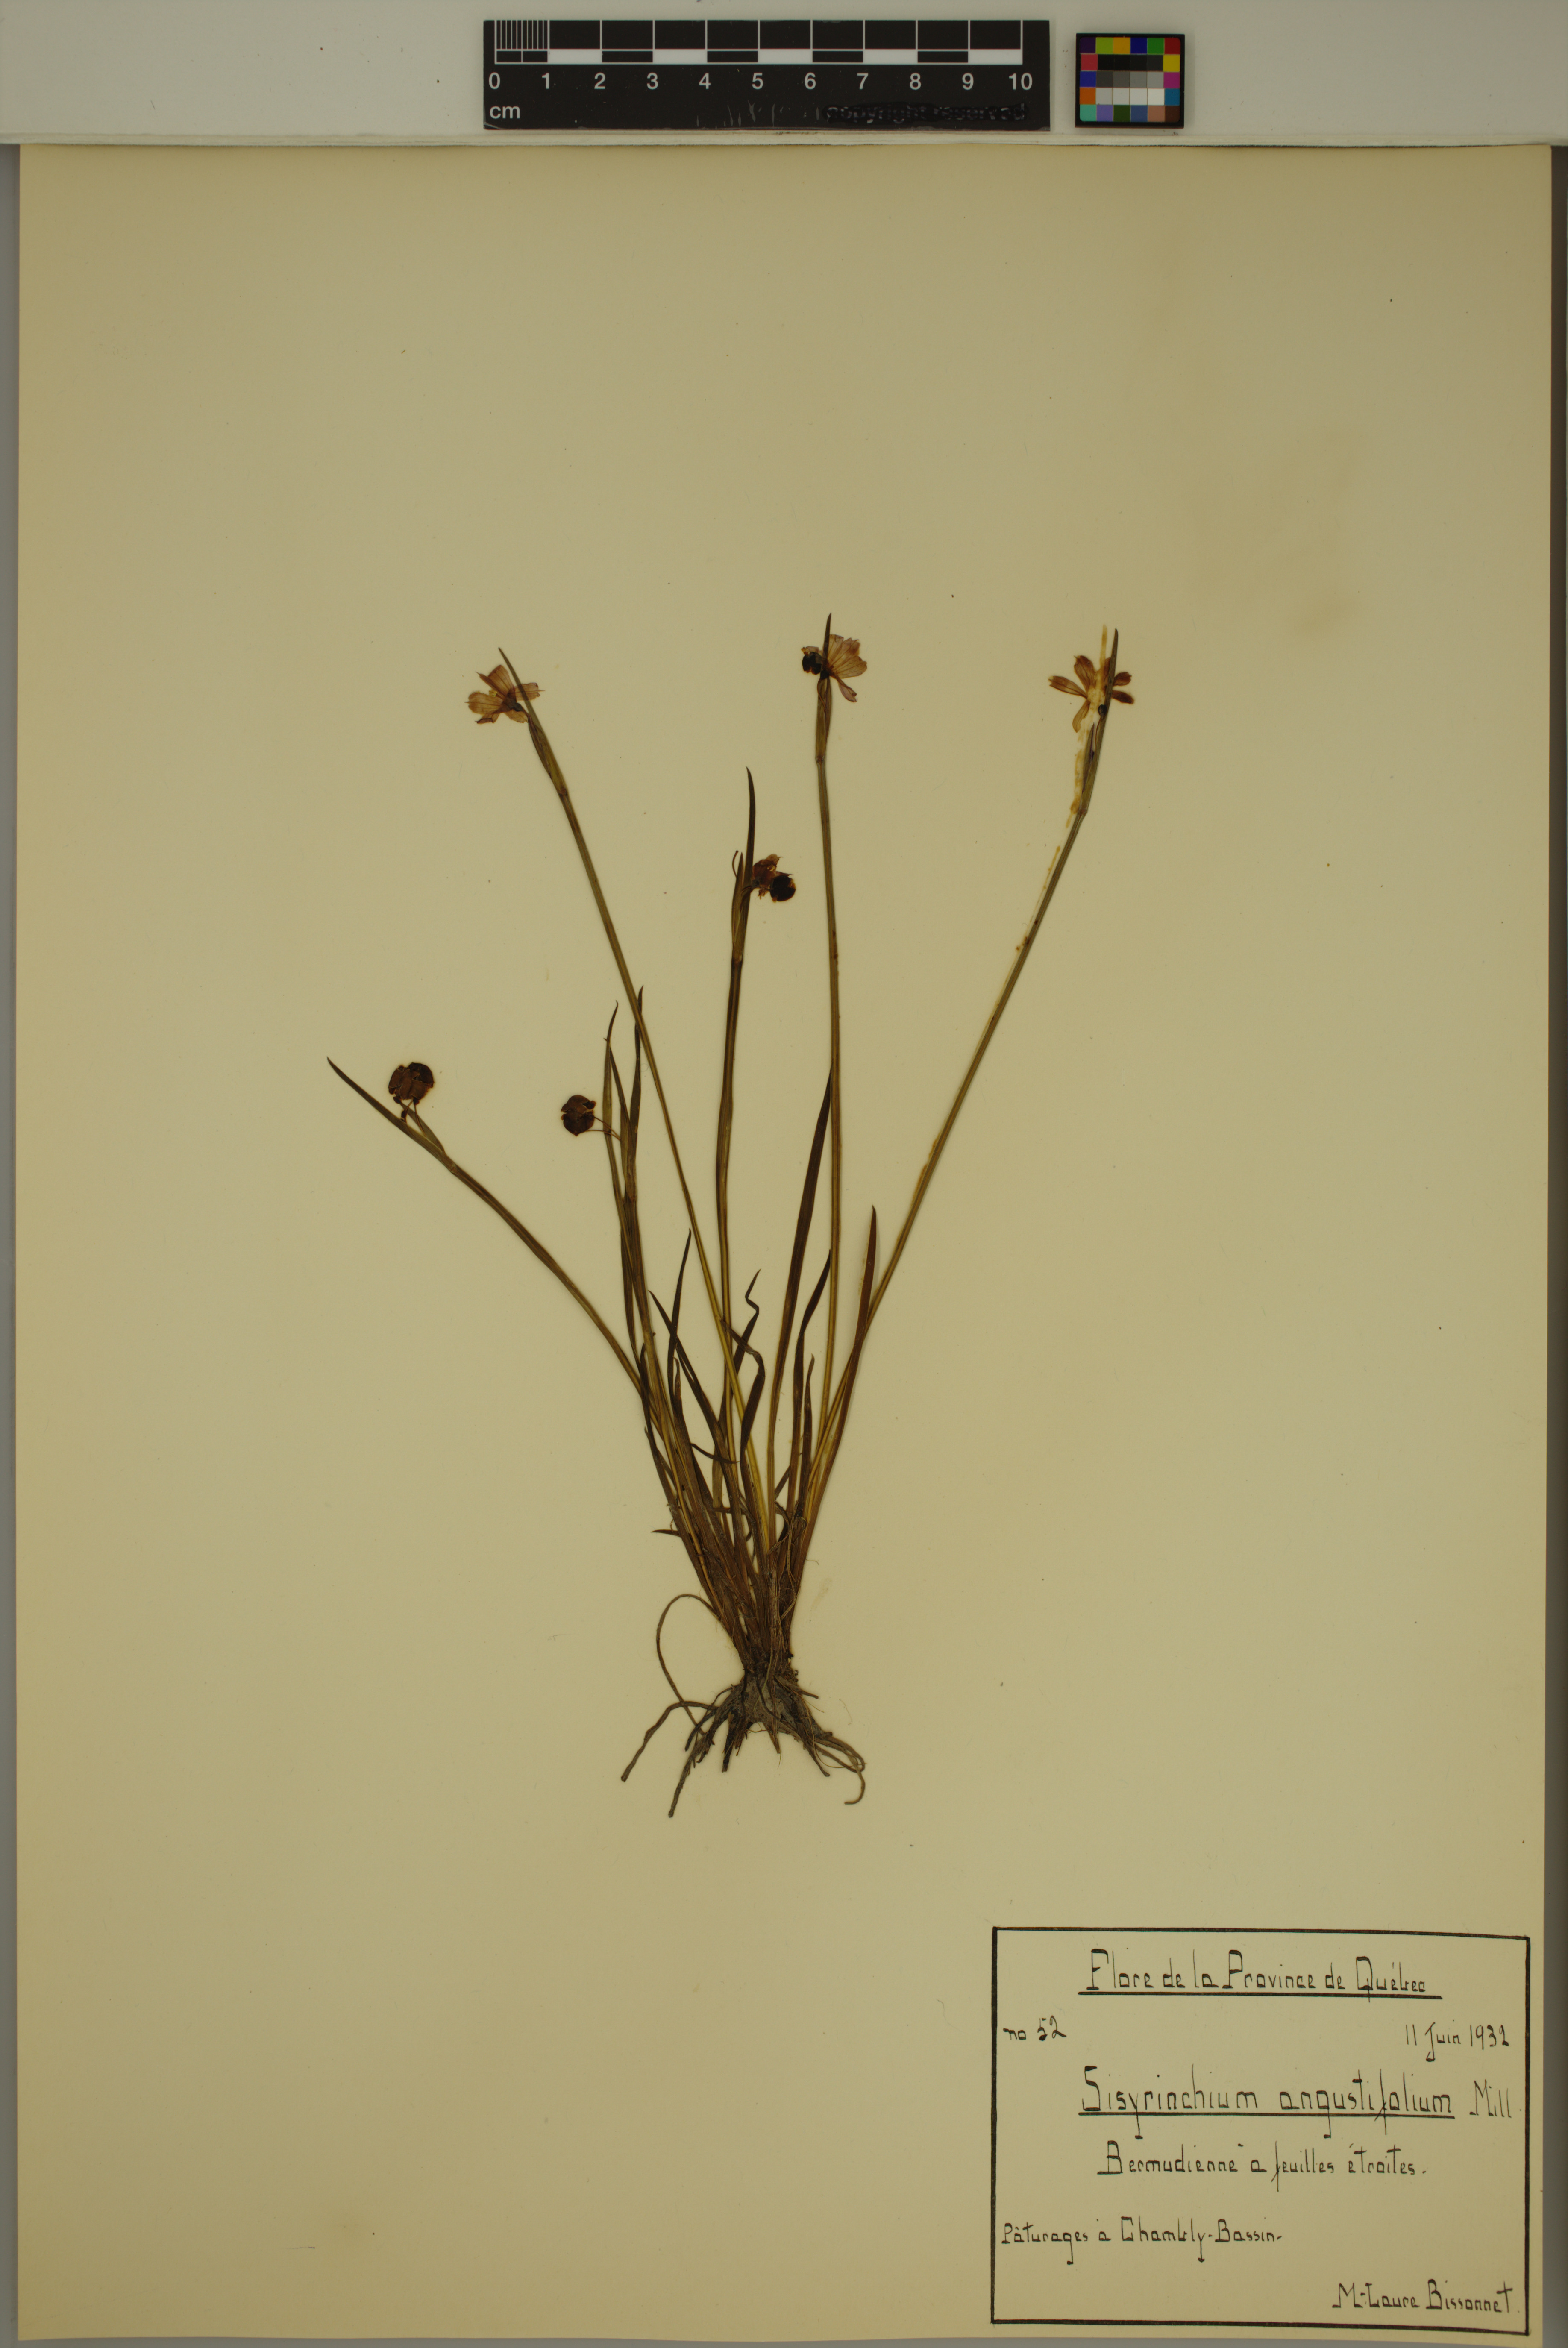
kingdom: Plantae
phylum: Tracheophyta
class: Liliopsida
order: Asparagales
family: Iridaceae
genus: Sisyrinchium
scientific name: Sisyrinchium angustifolium
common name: Narrow-leaf blue-eyed-grass
